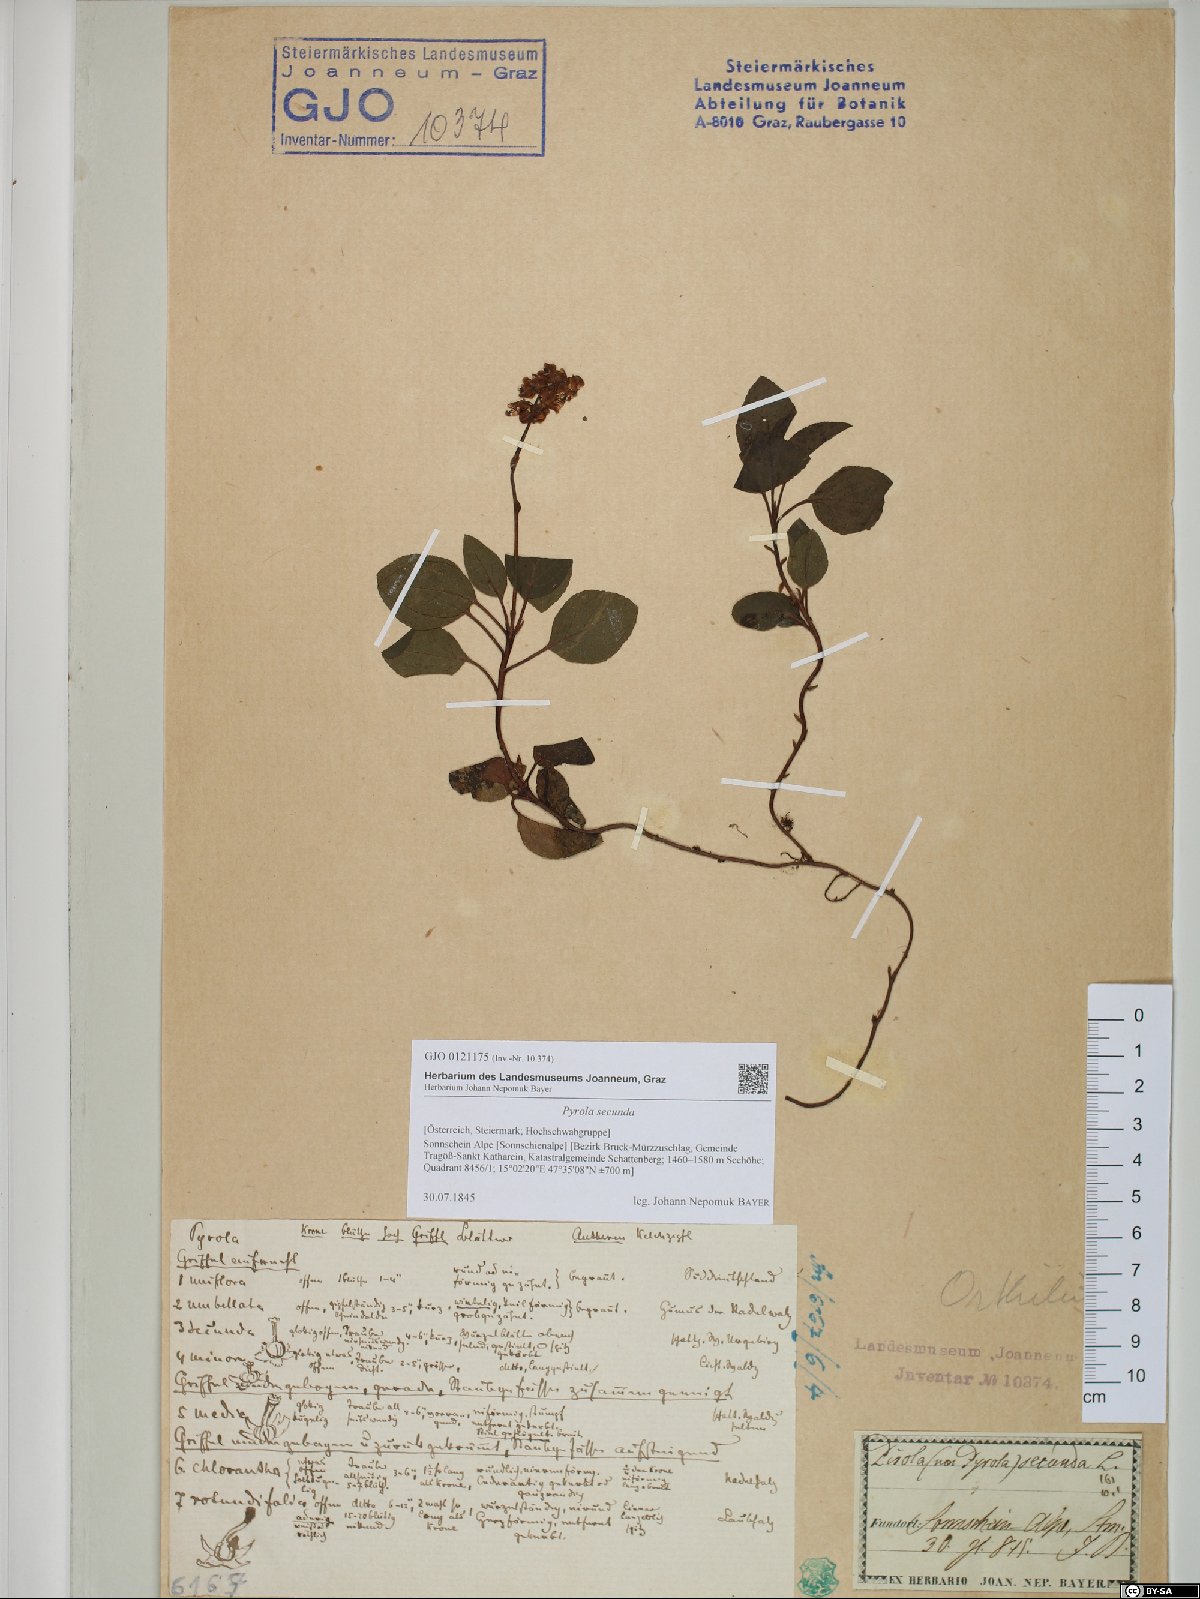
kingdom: Plantae
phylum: Tracheophyta
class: Magnoliopsida
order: Ericales
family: Ericaceae
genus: Orthilia
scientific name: Orthilia secunda
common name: One-sided orthilia
